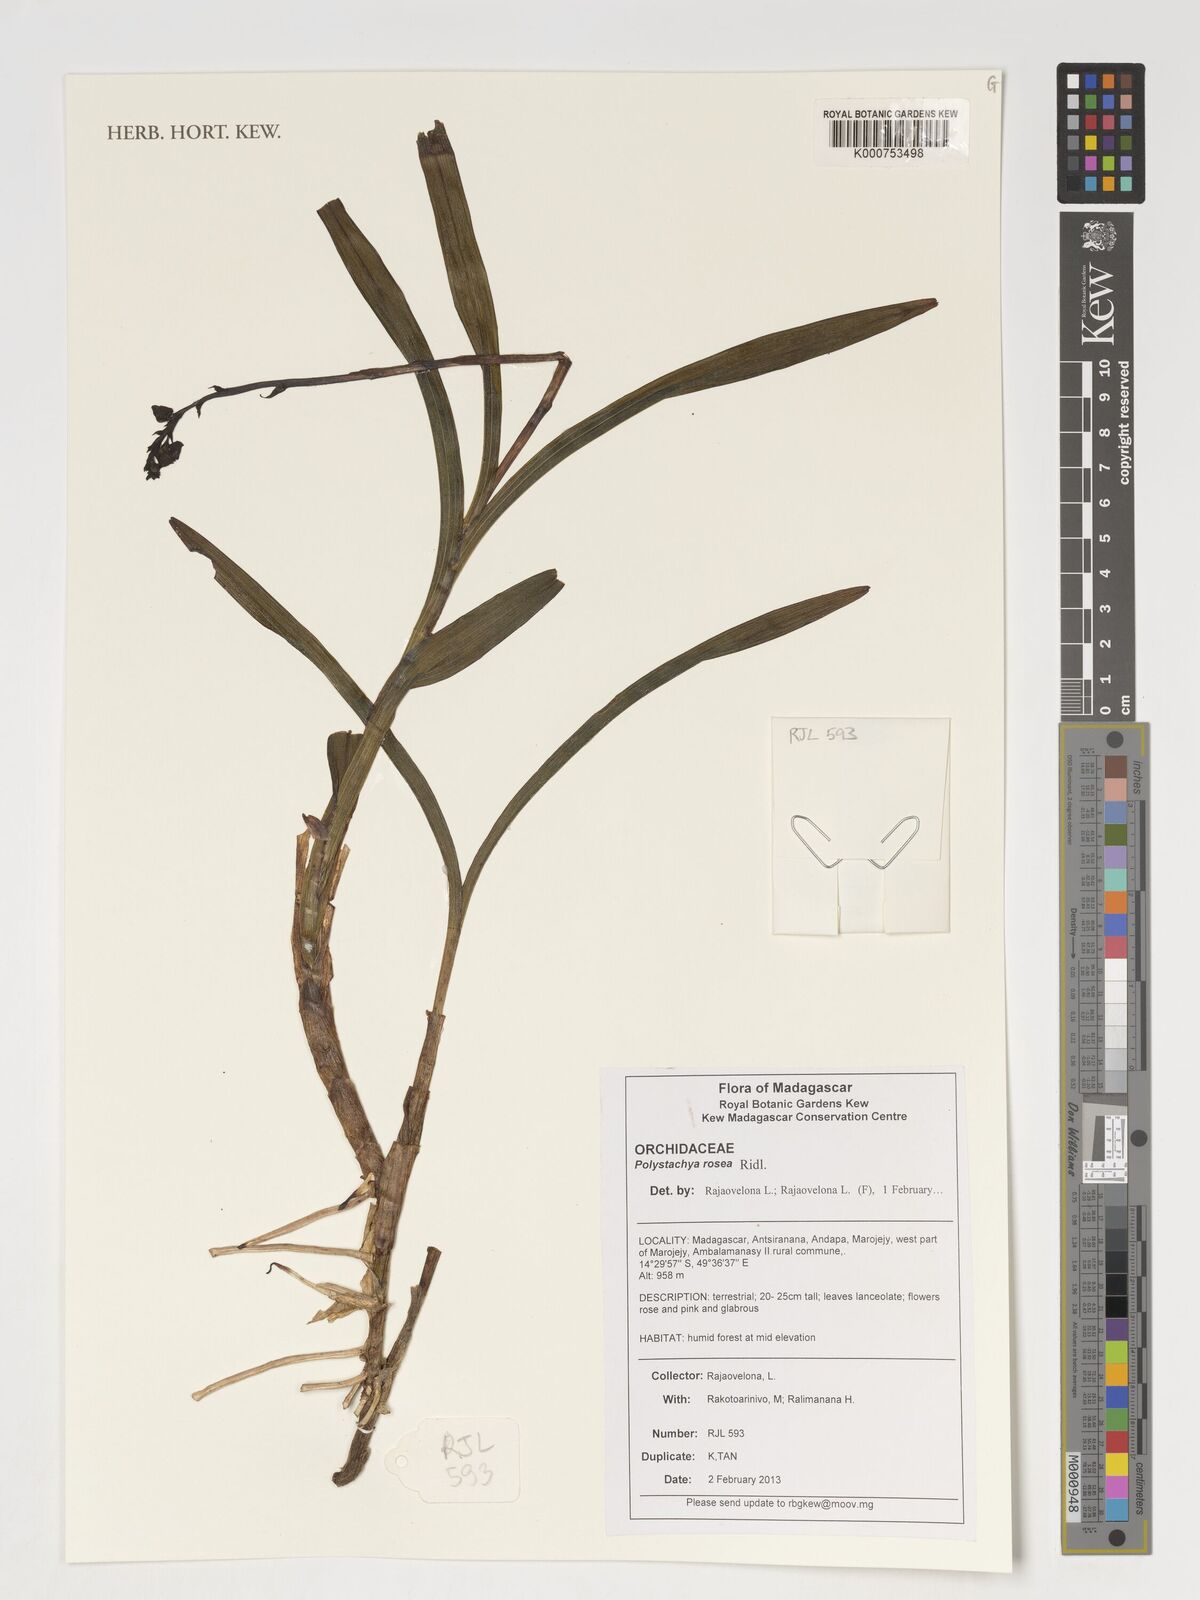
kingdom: Plantae
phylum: Tracheophyta
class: Liliopsida
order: Asparagales
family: Orchidaceae
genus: Polystachya
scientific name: Polystachya rosea
